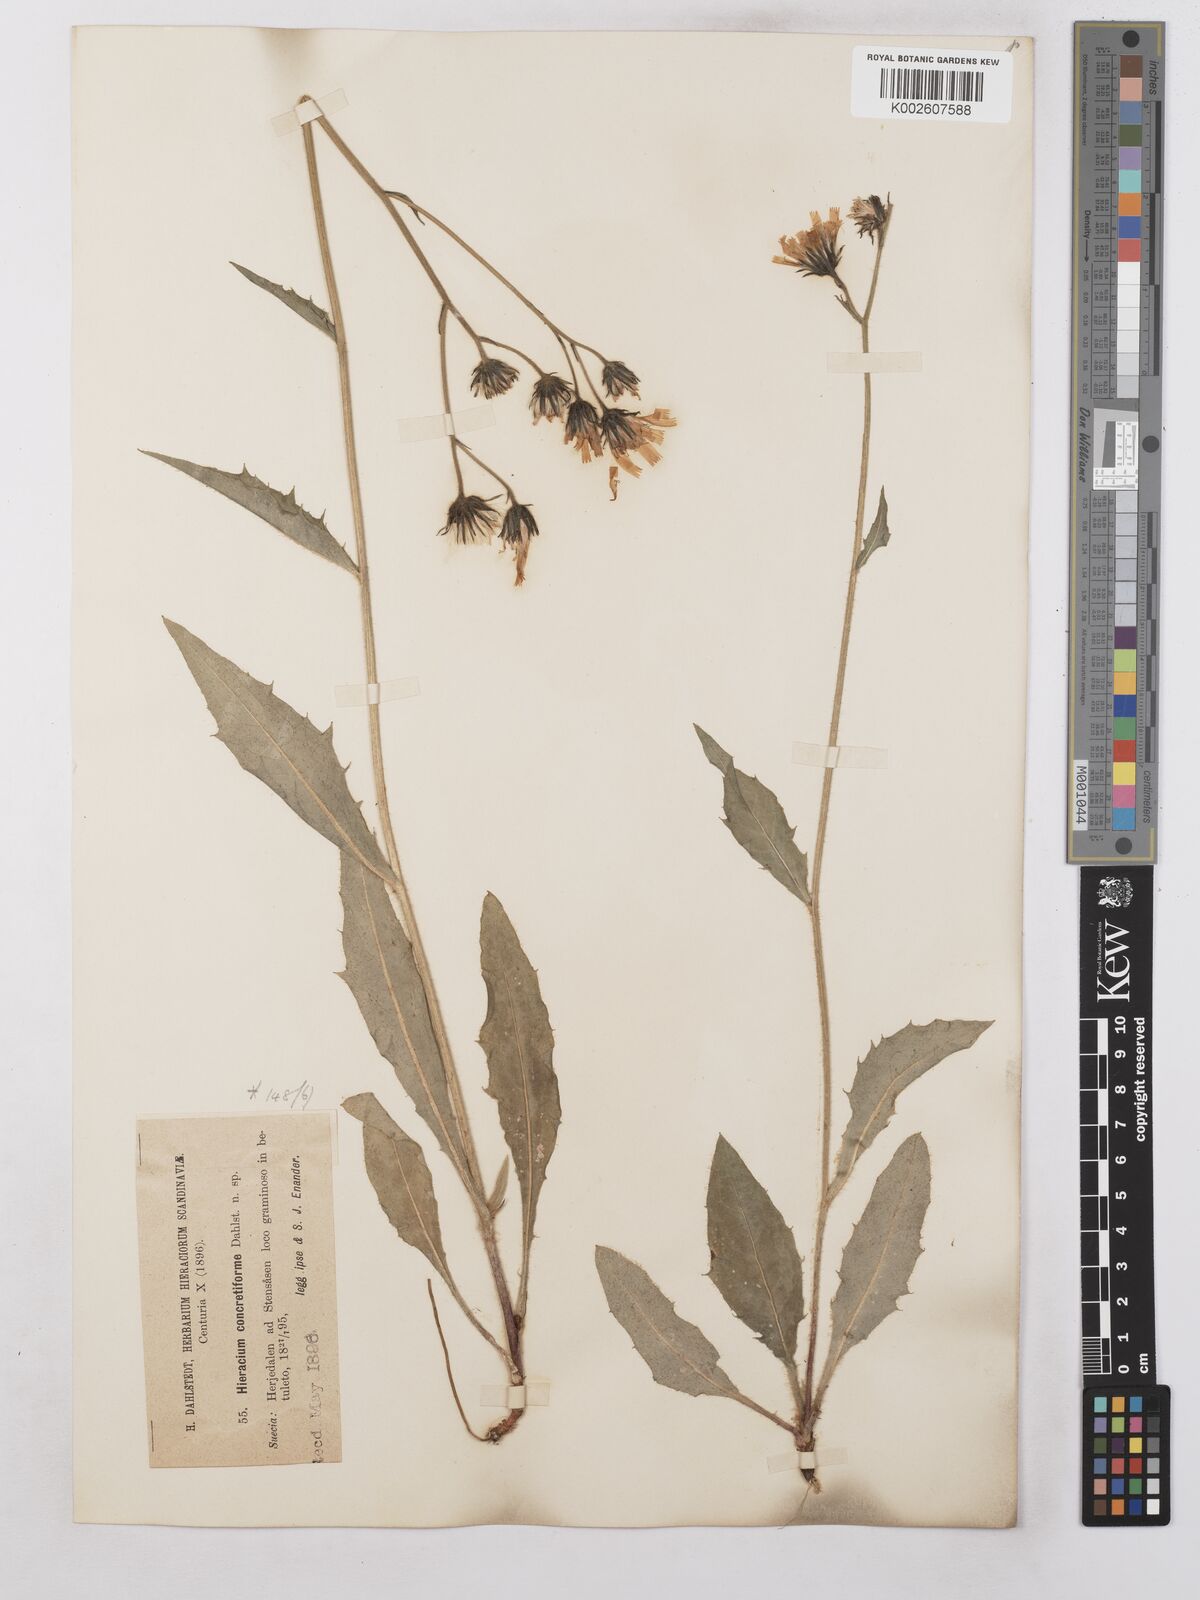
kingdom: Plantae
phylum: Tracheophyta
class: Magnoliopsida
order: Asterales
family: Asteraceae
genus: Hieracium
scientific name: Hieracium subramosum
